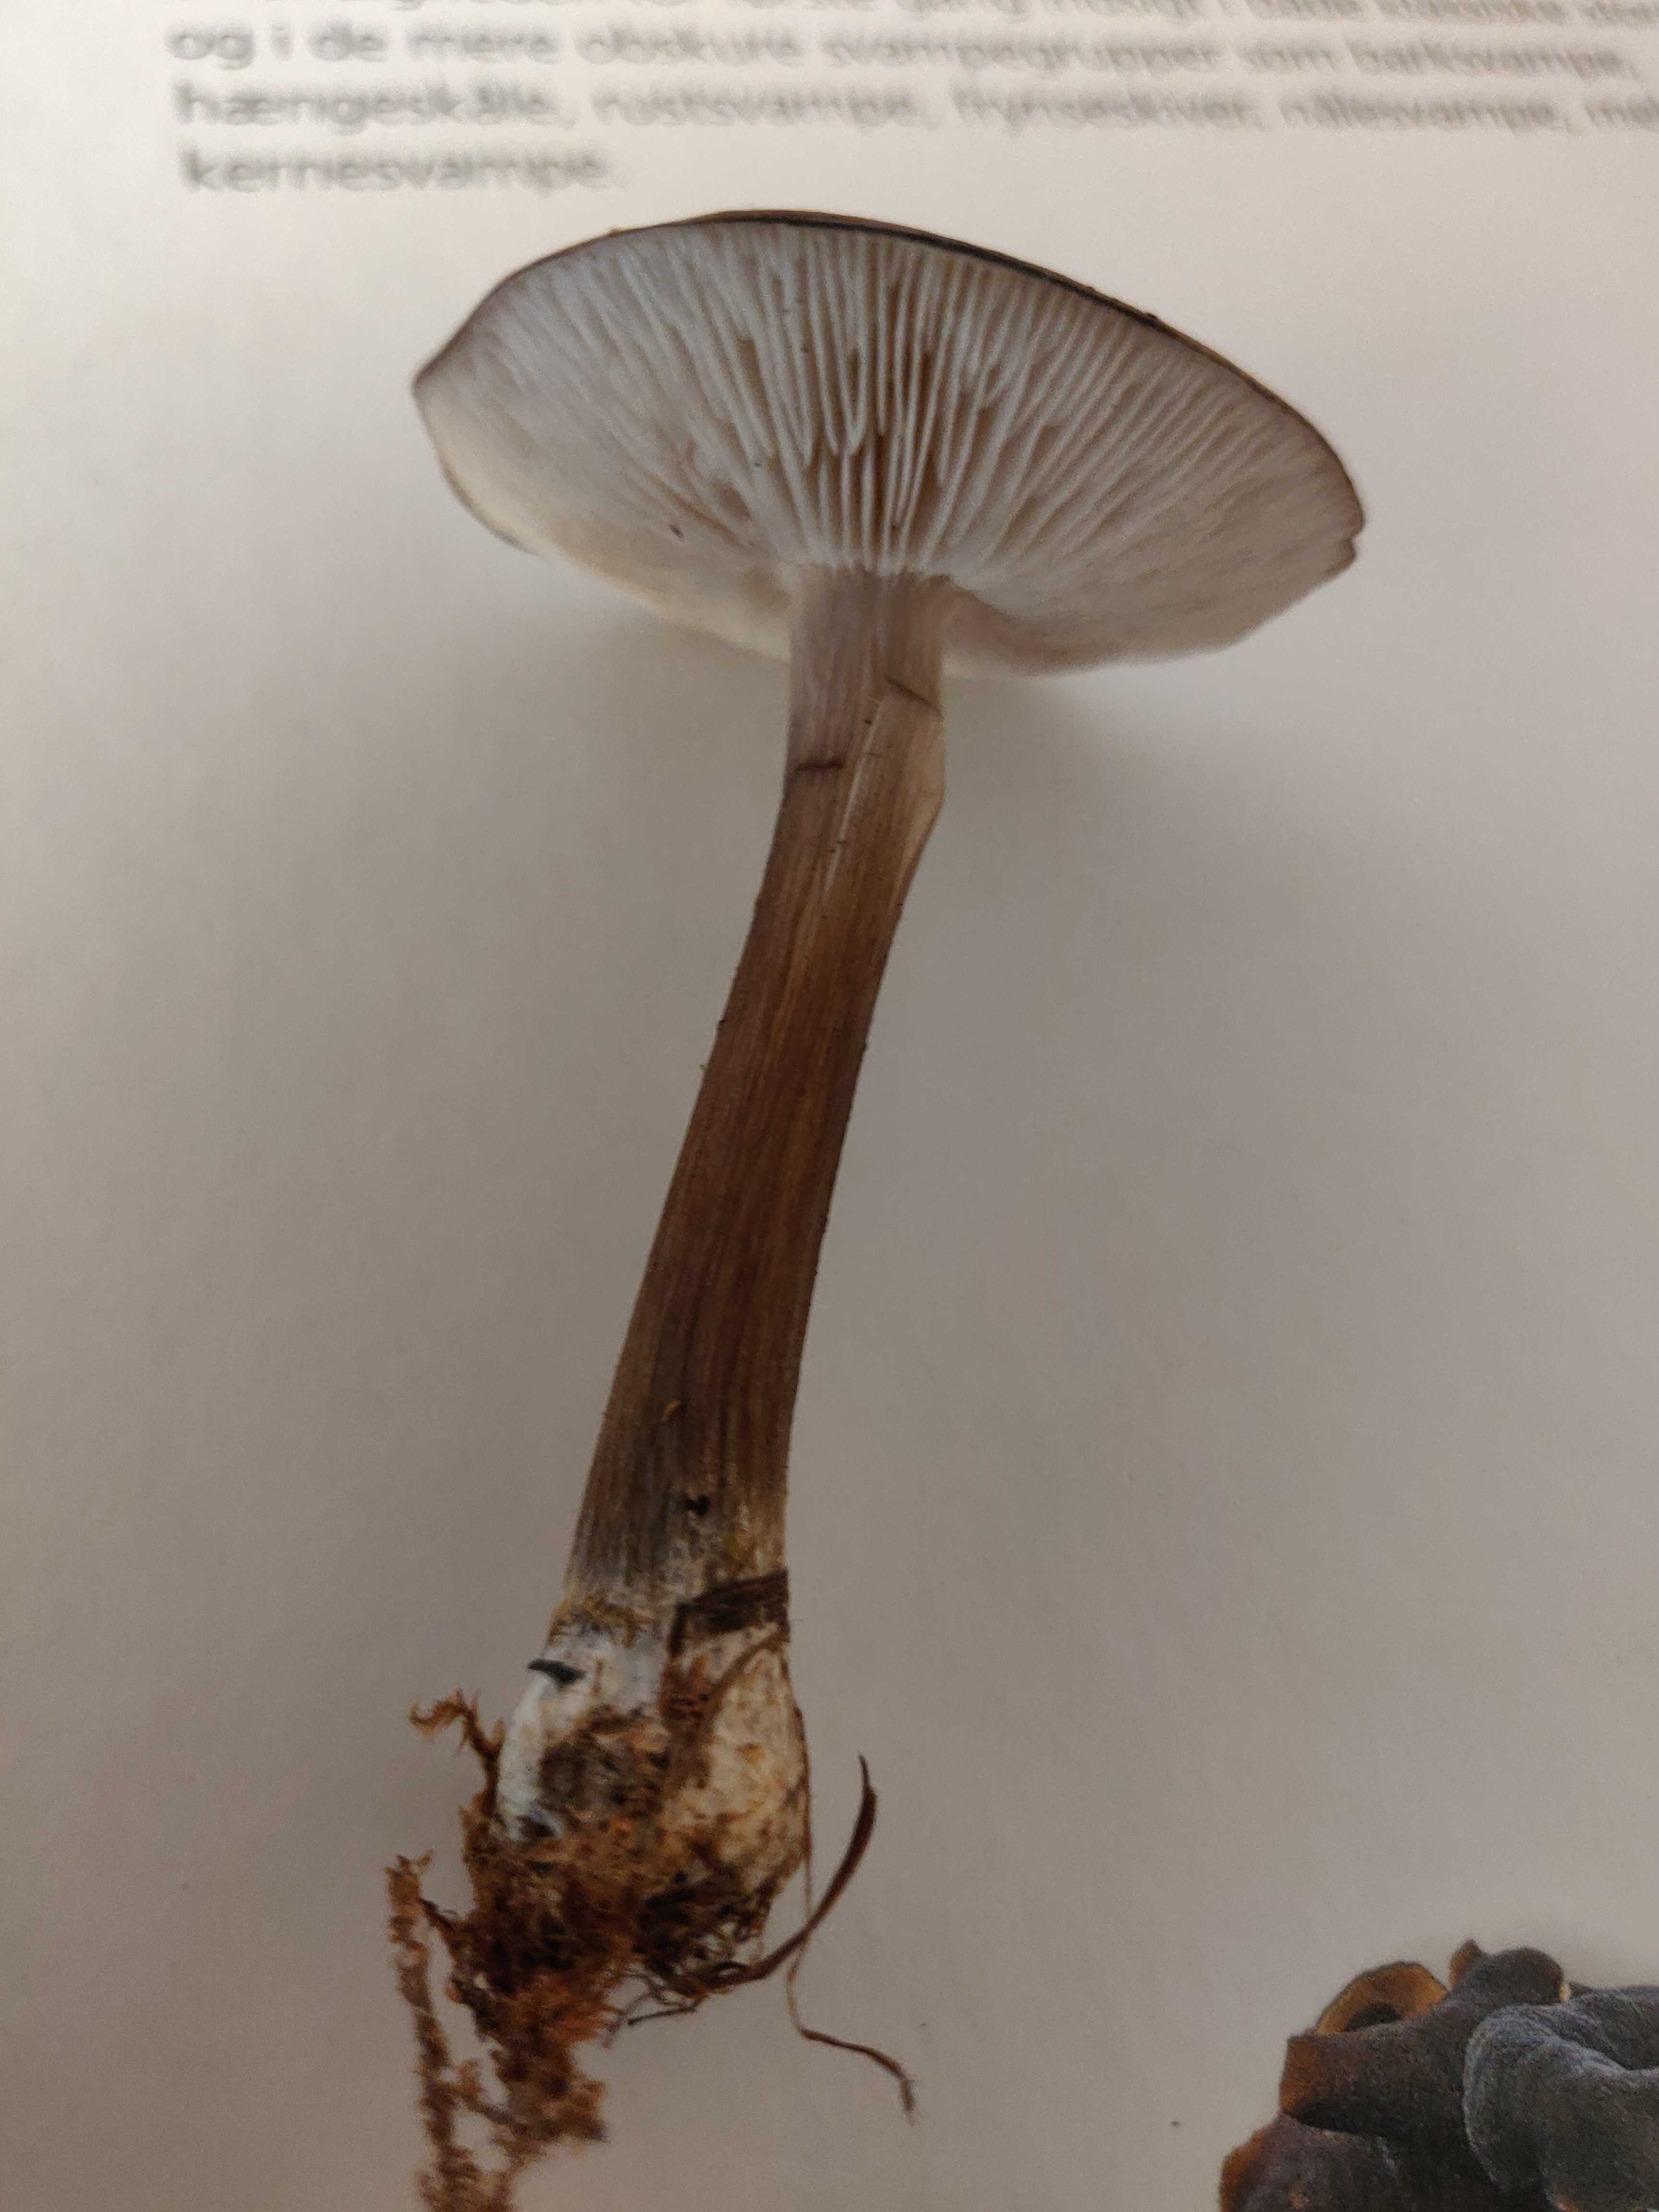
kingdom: Fungi
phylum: Basidiomycota
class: Agaricomycetes
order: Agaricales
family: Tricholomataceae
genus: Melanoleuca
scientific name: Melanoleuca
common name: munkehat
